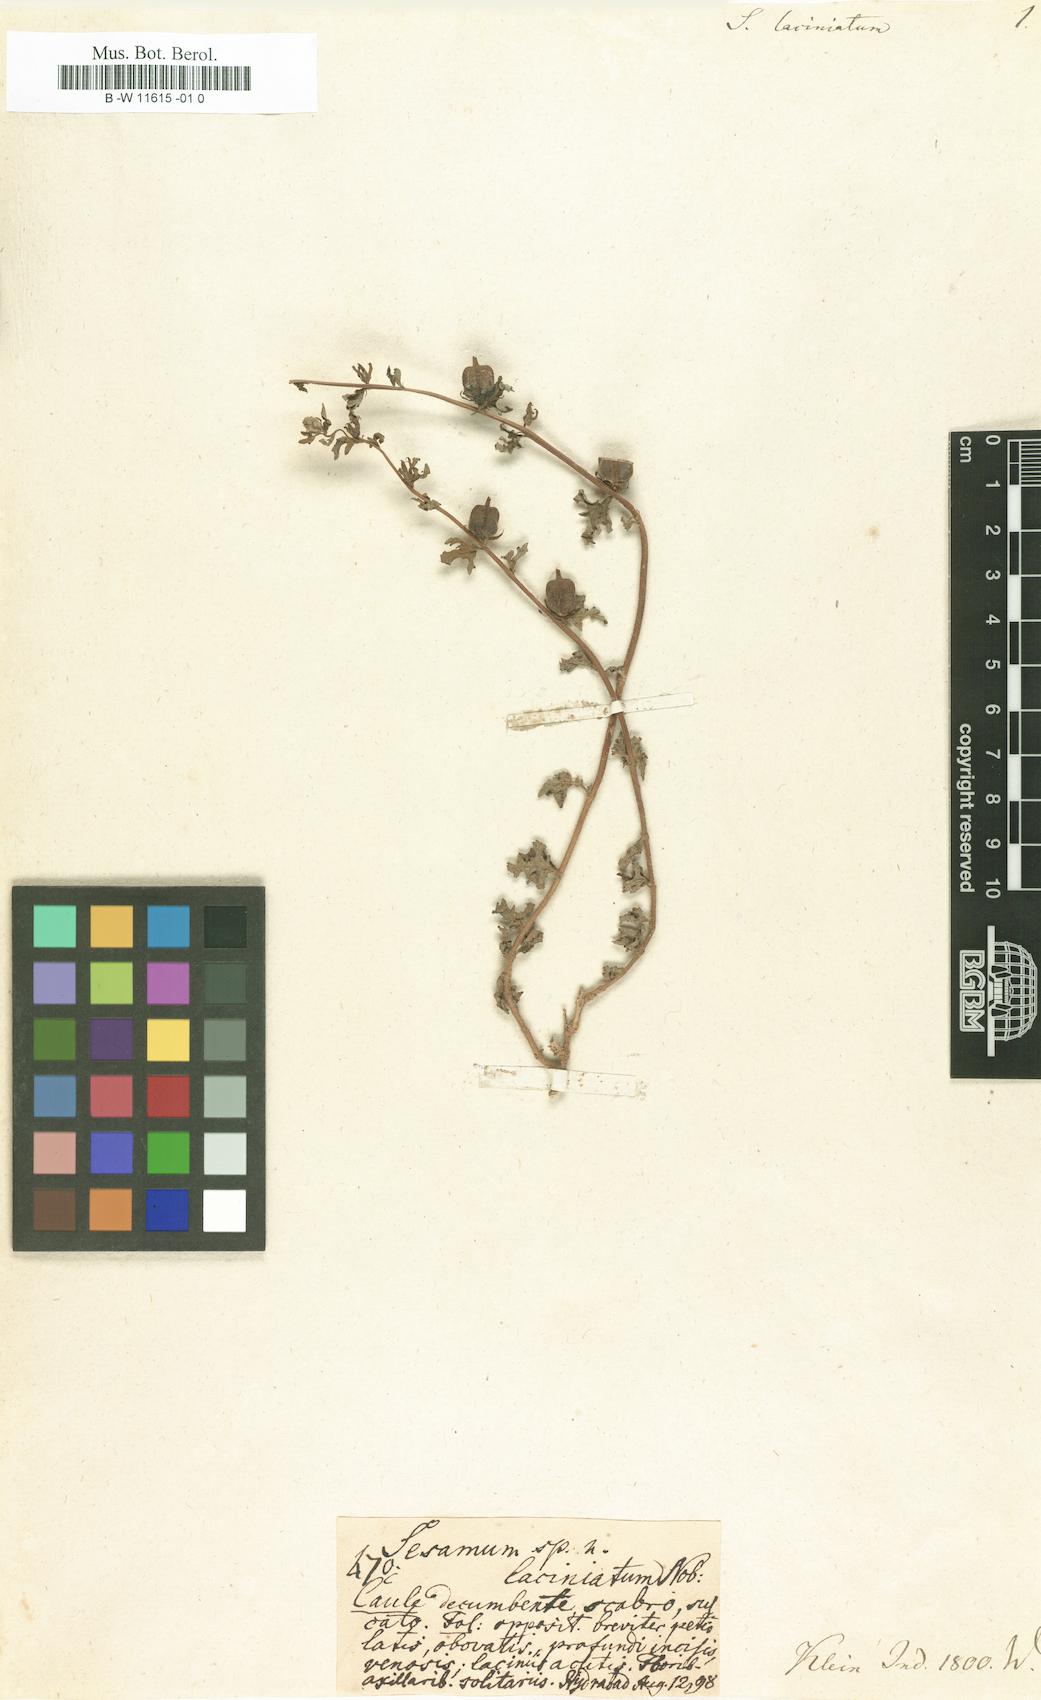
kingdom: Plantae
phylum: Tracheophyta
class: Magnoliopsida
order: Lamiales
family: Pedaliaceae
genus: Sesamum
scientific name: Sesamum prostratum
